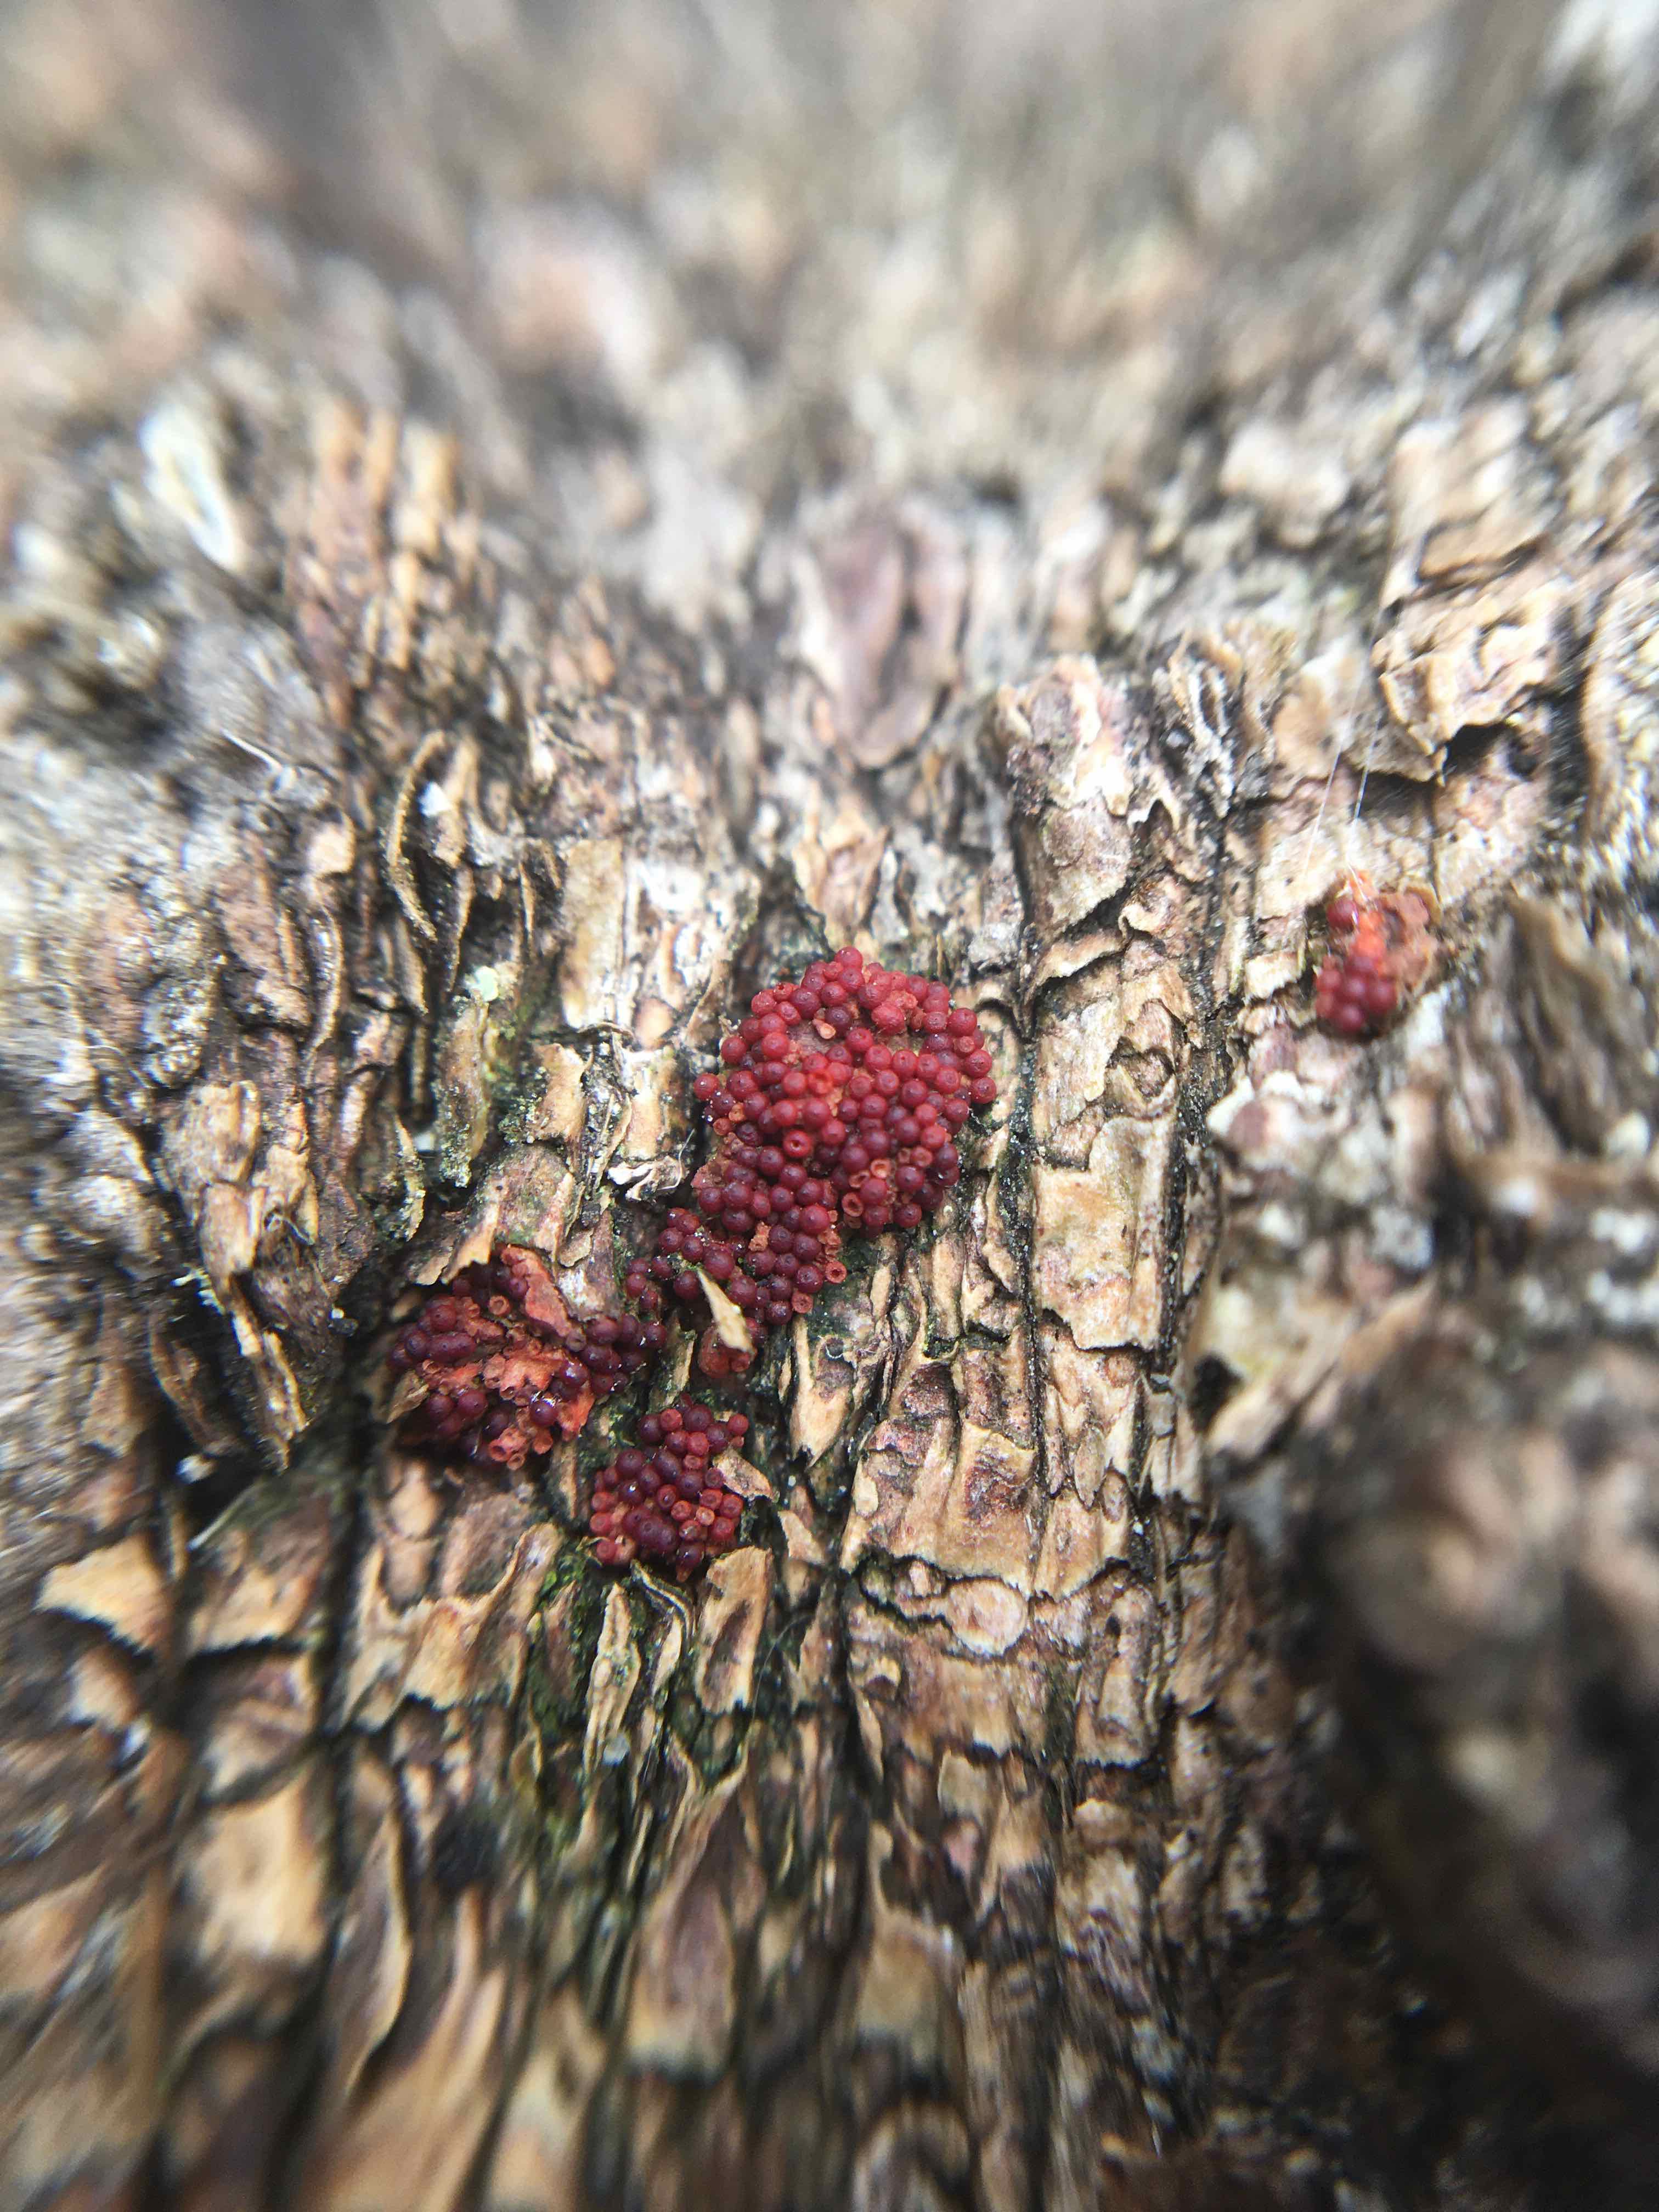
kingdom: Fungi
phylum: Ascomycota
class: Sordariomycetes
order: Hypocreales
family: Nectriaceae
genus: Nectria
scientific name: Nectria
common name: cinnobersvamp
